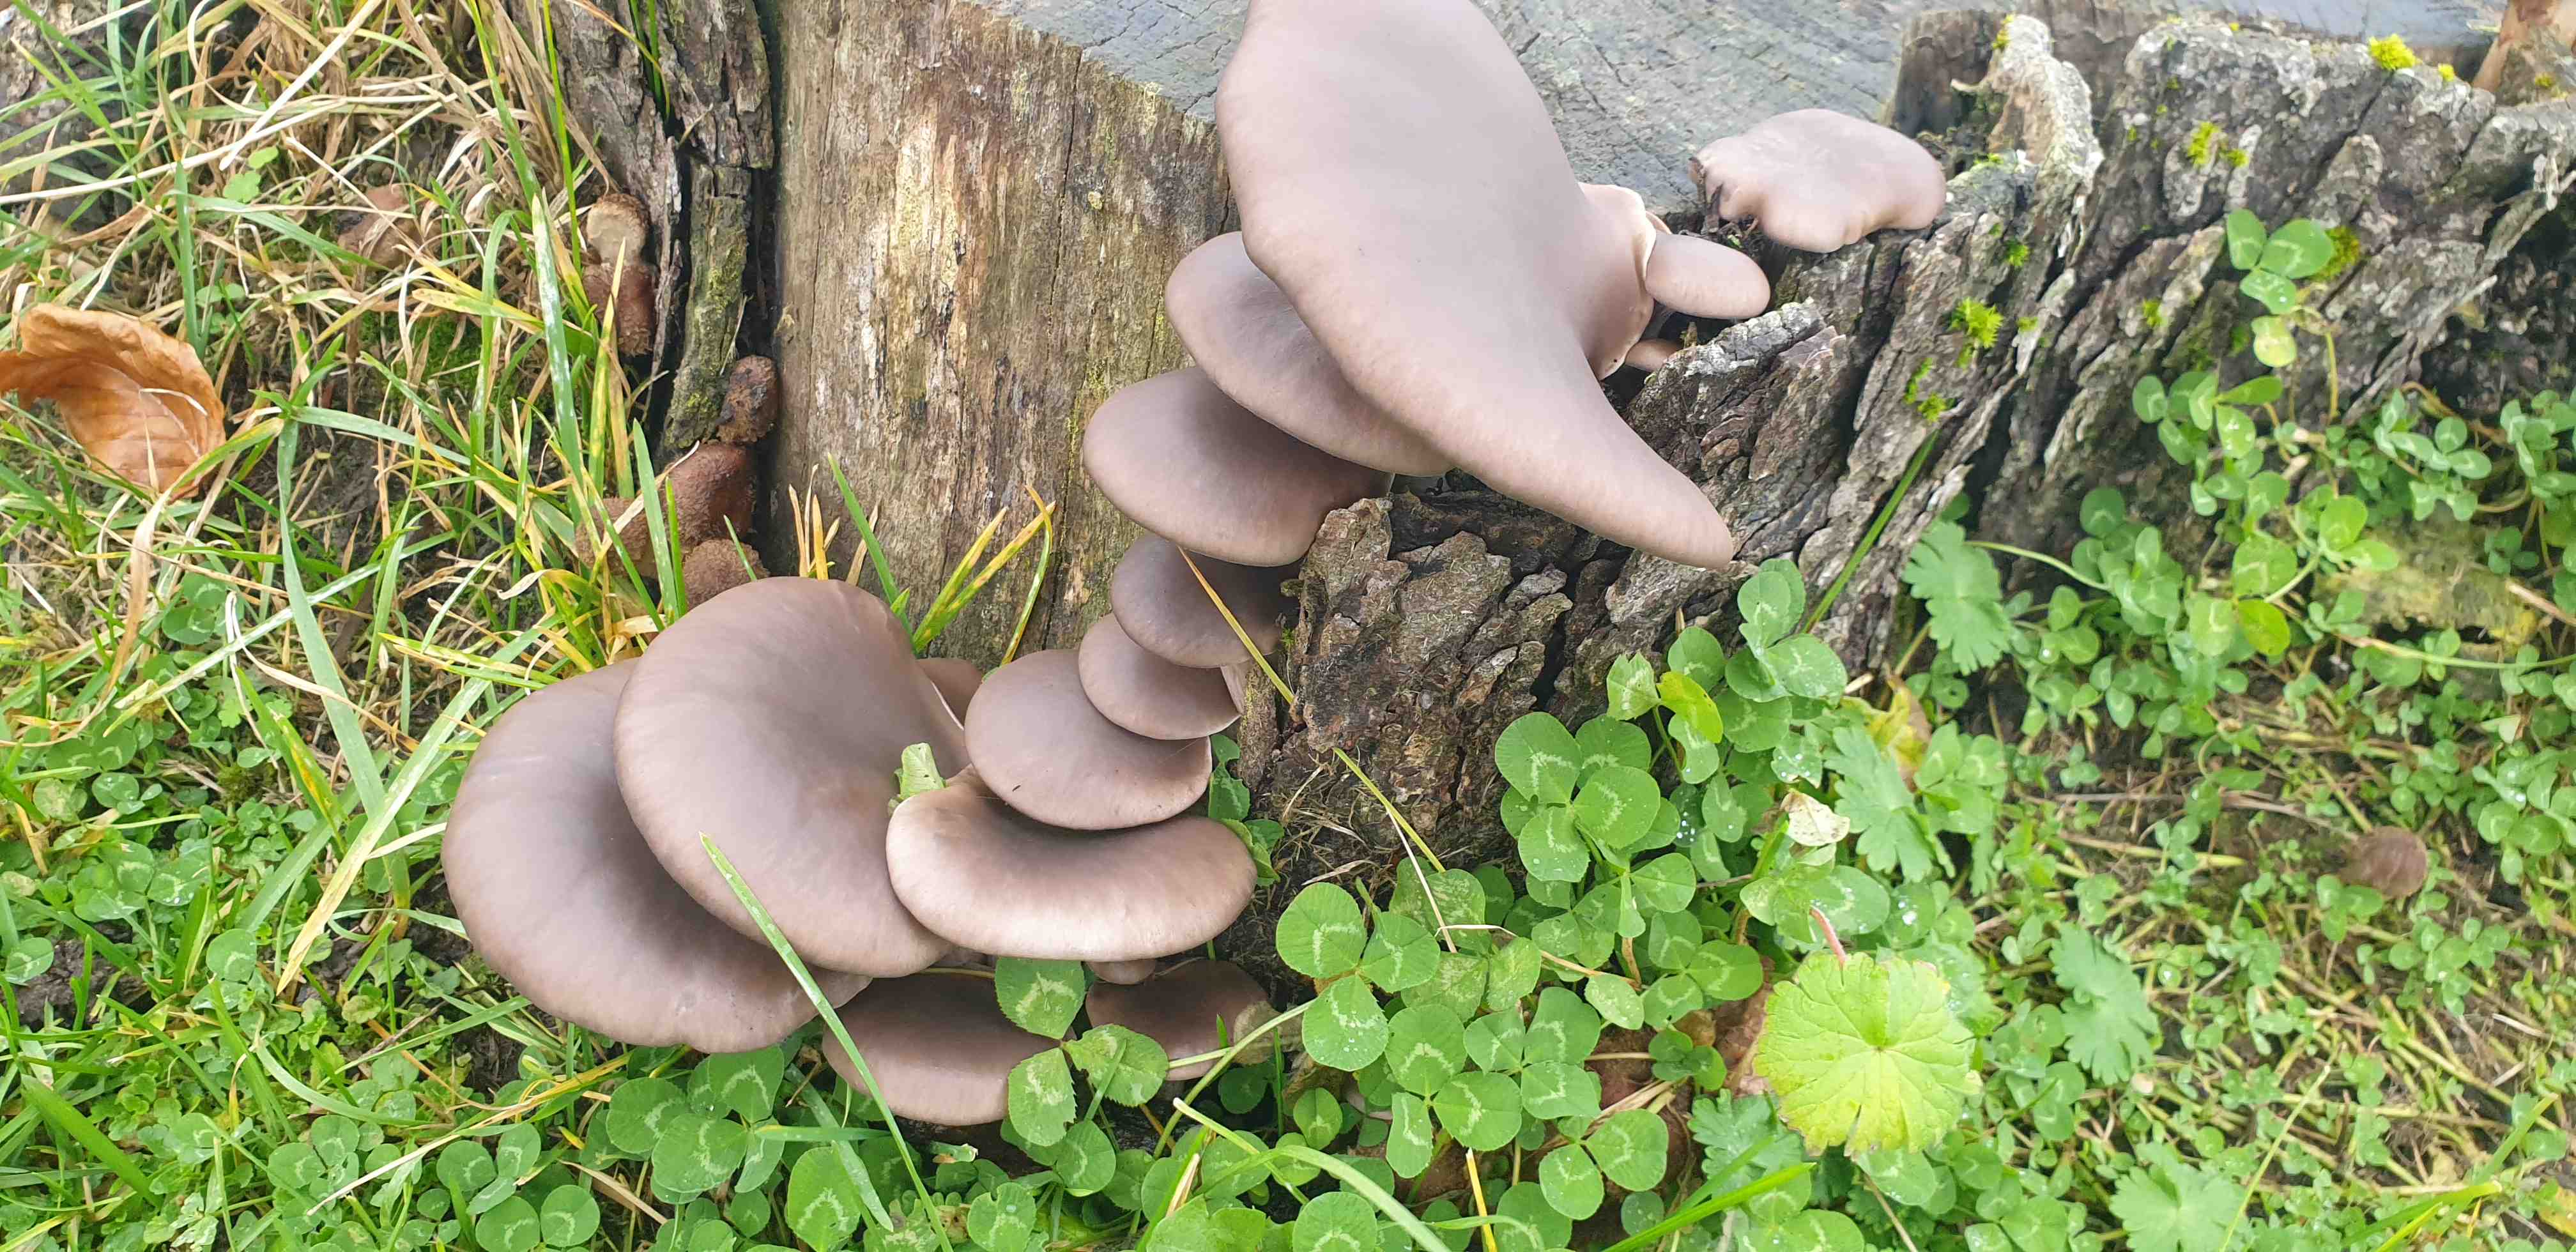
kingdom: Fungi
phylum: Basidiomycota
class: Agaricomycetes
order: Agaricales
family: Pleurotaceae
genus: Pleurotus
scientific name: Pleurotus ostreatus
